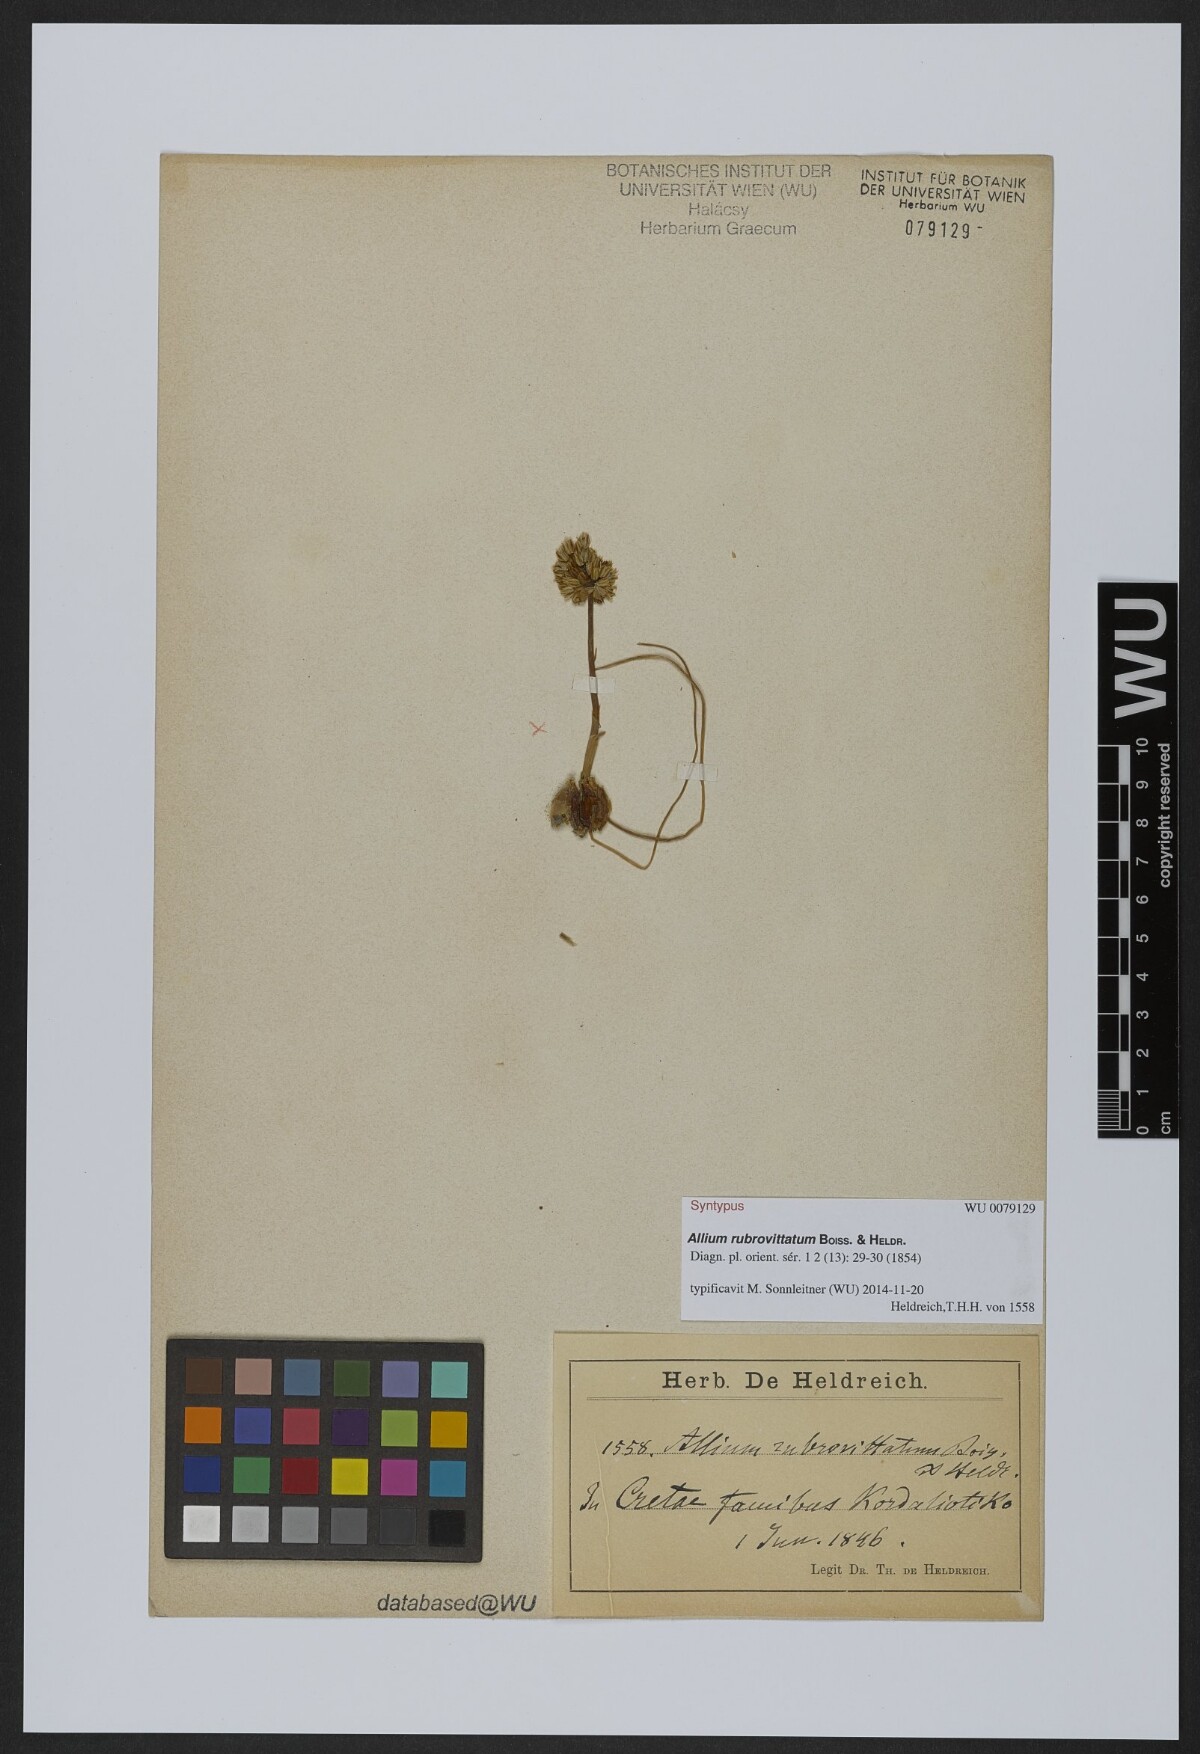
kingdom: Plantae
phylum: Tracheophyta
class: Liliopsida
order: Asparagales
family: Amaryllidaceae
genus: Allium
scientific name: Allium rubrovittatum
